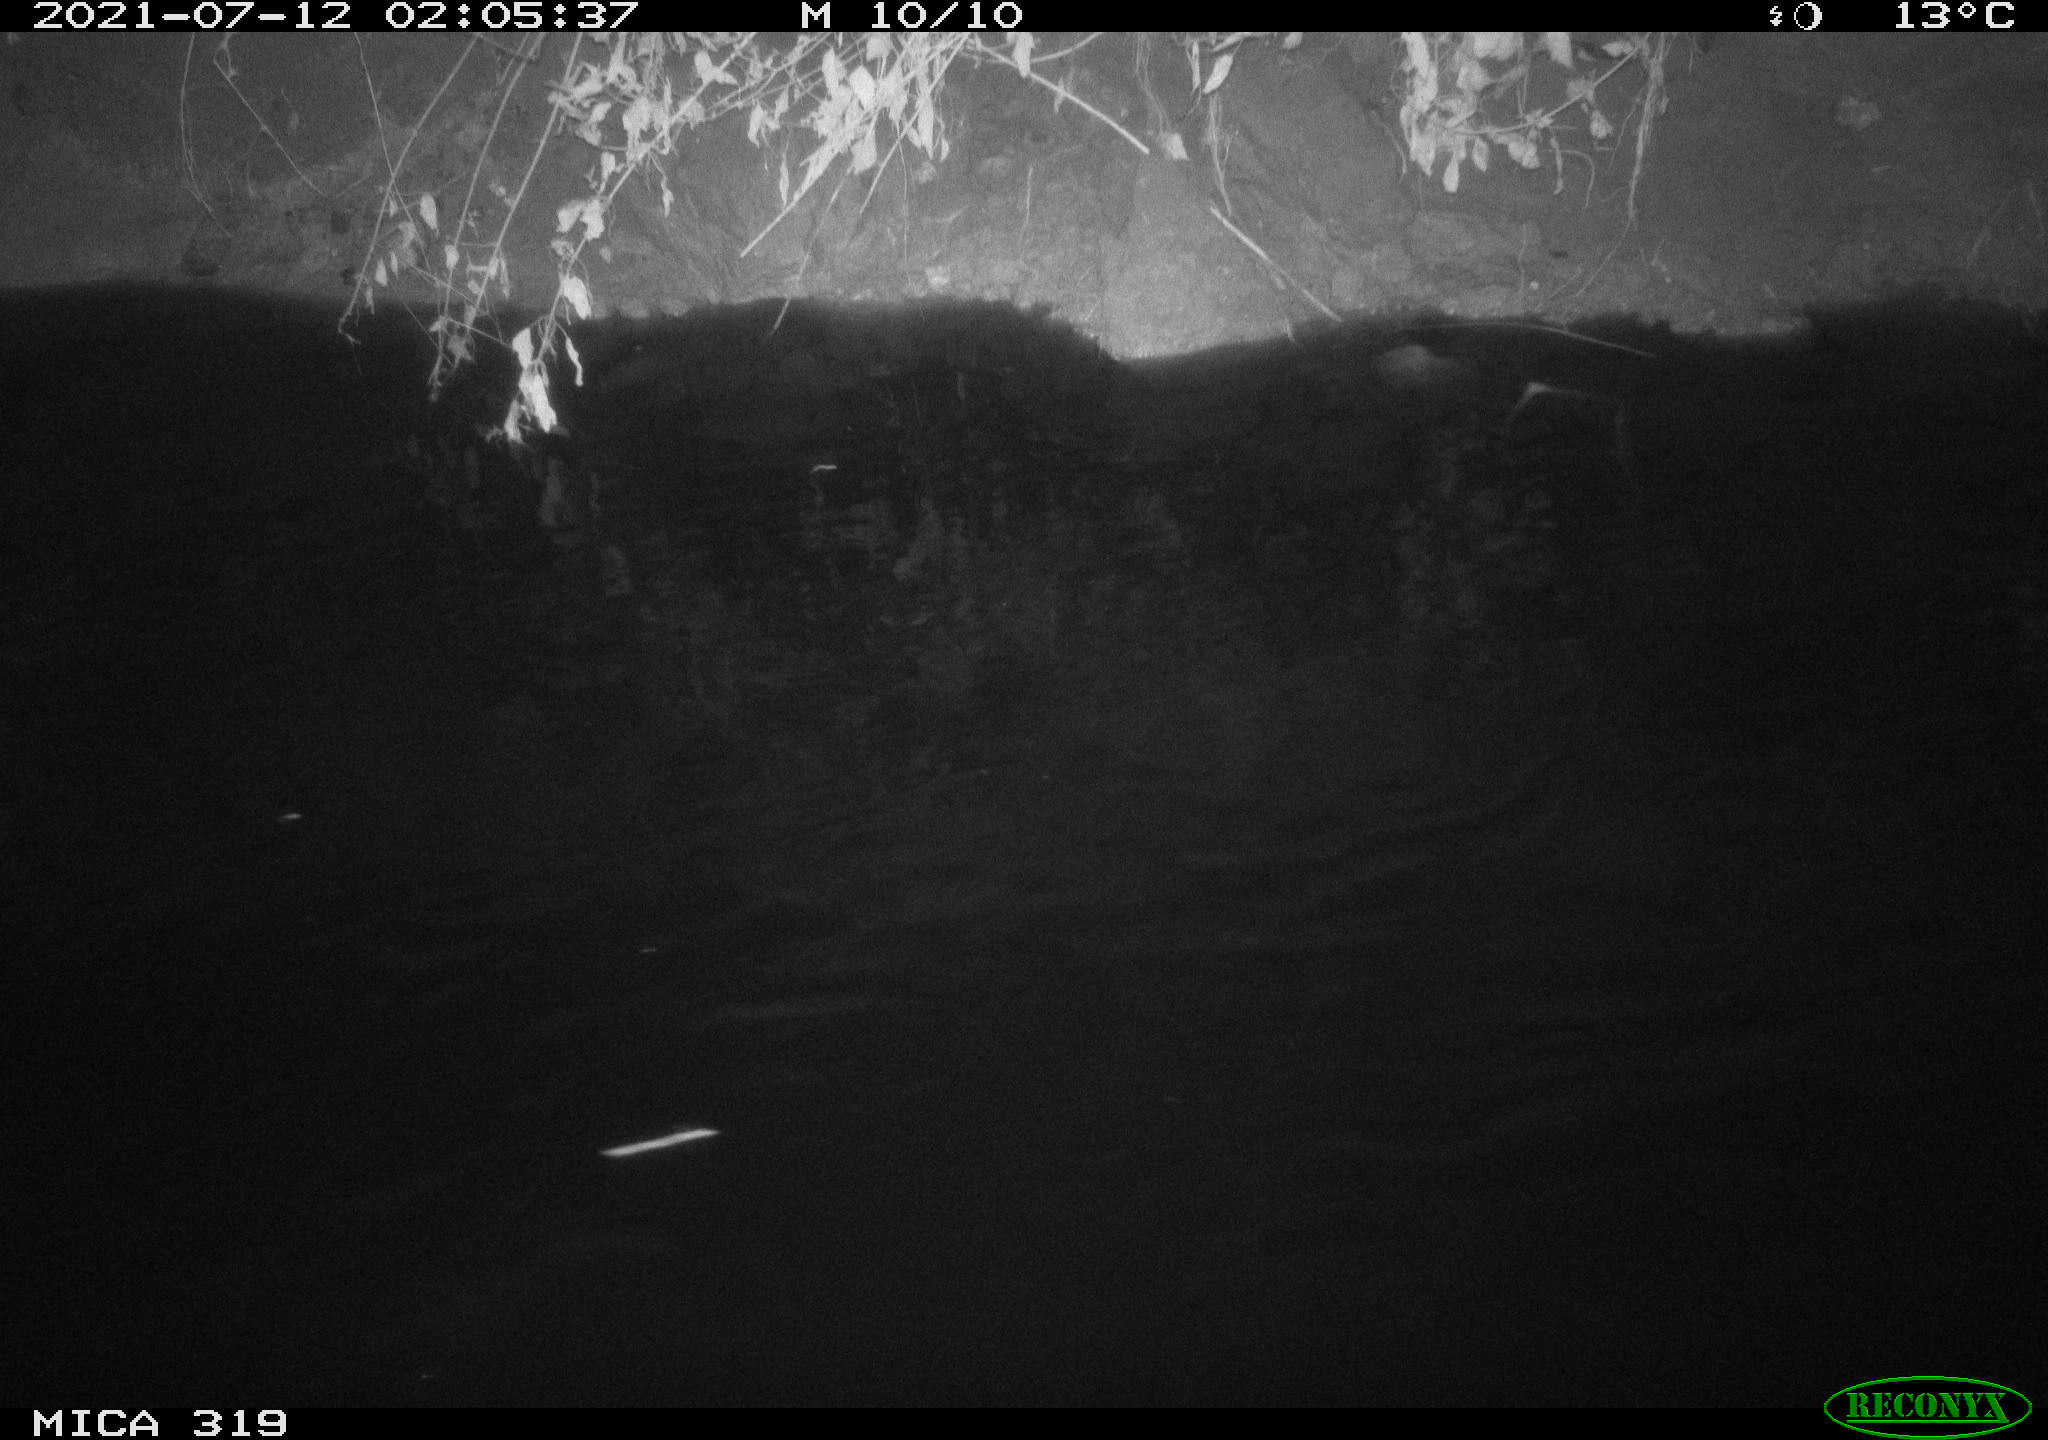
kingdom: Animalia
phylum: Chordata
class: Aves
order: Anseriformes
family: Anatidae
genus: Anas
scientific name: Anas platyrhynchos
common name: Mallard
